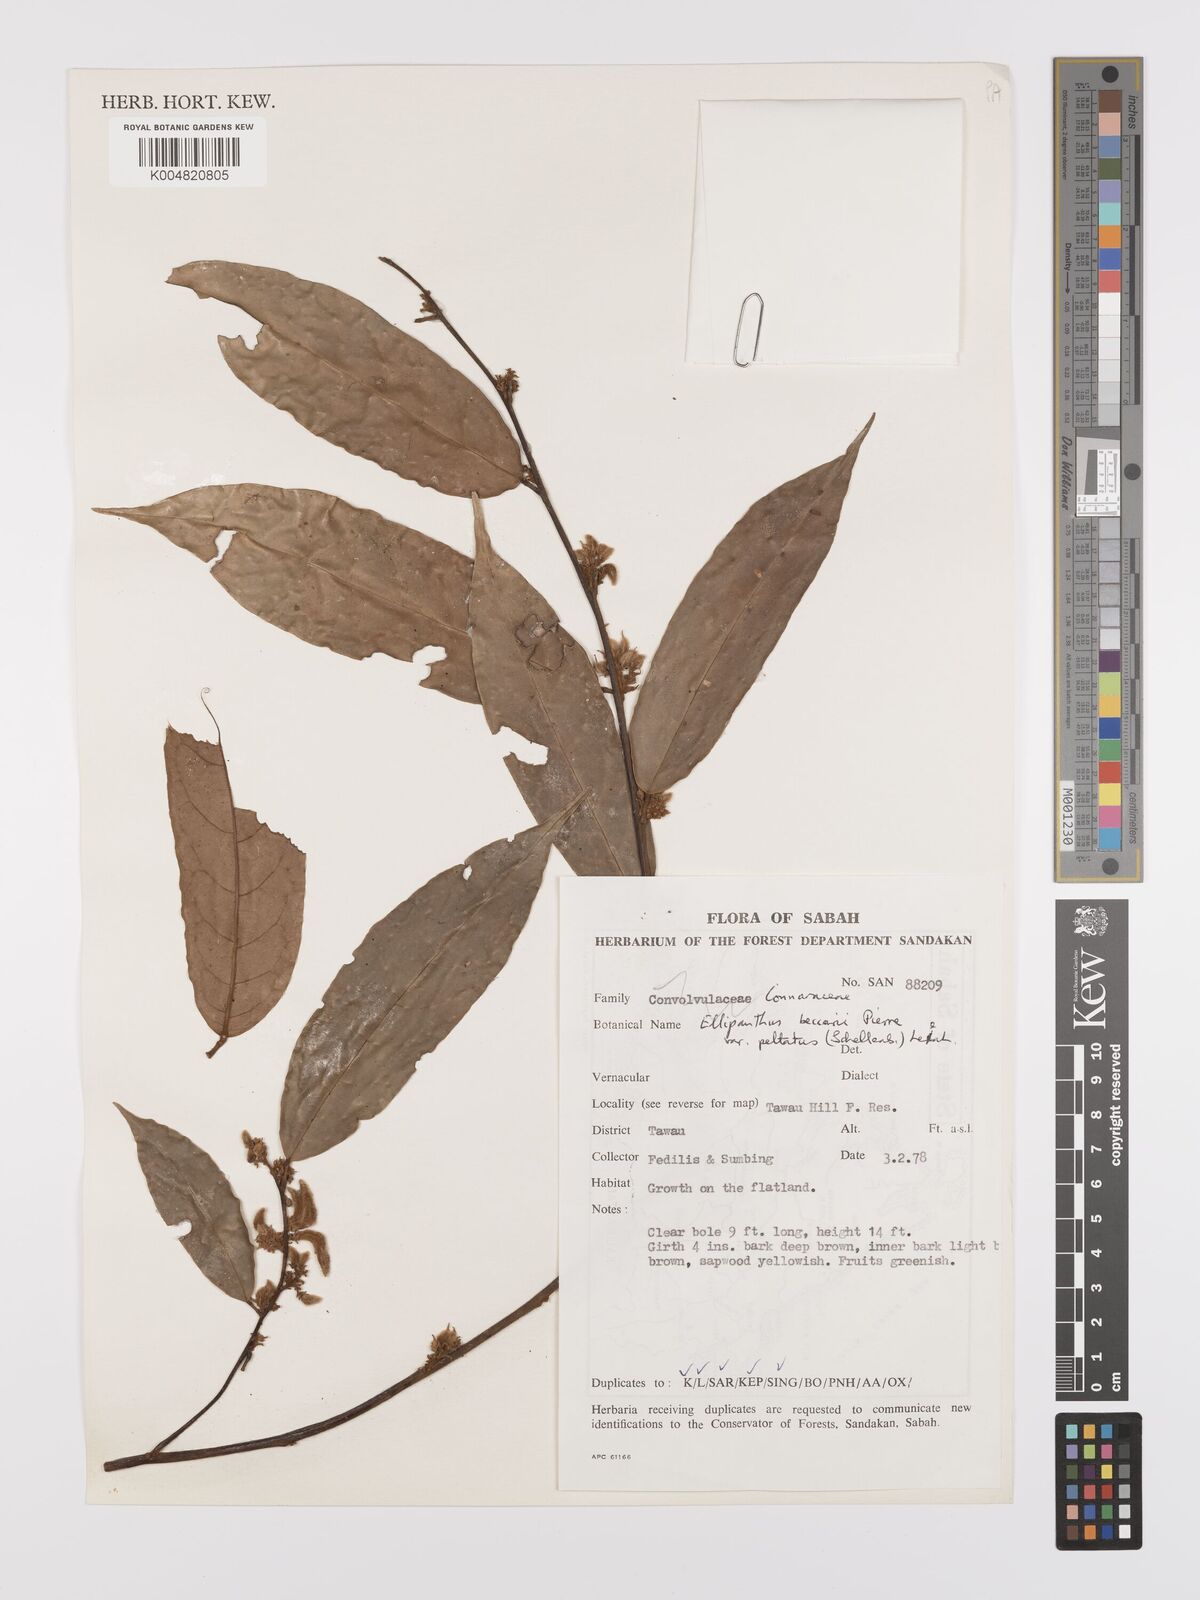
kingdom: Plantae
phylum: Tracheophyta
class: Magnoliopsida
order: Oxalidales
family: Connaraceae
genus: Ellipanthus
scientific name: Ellipanthus beccarii
